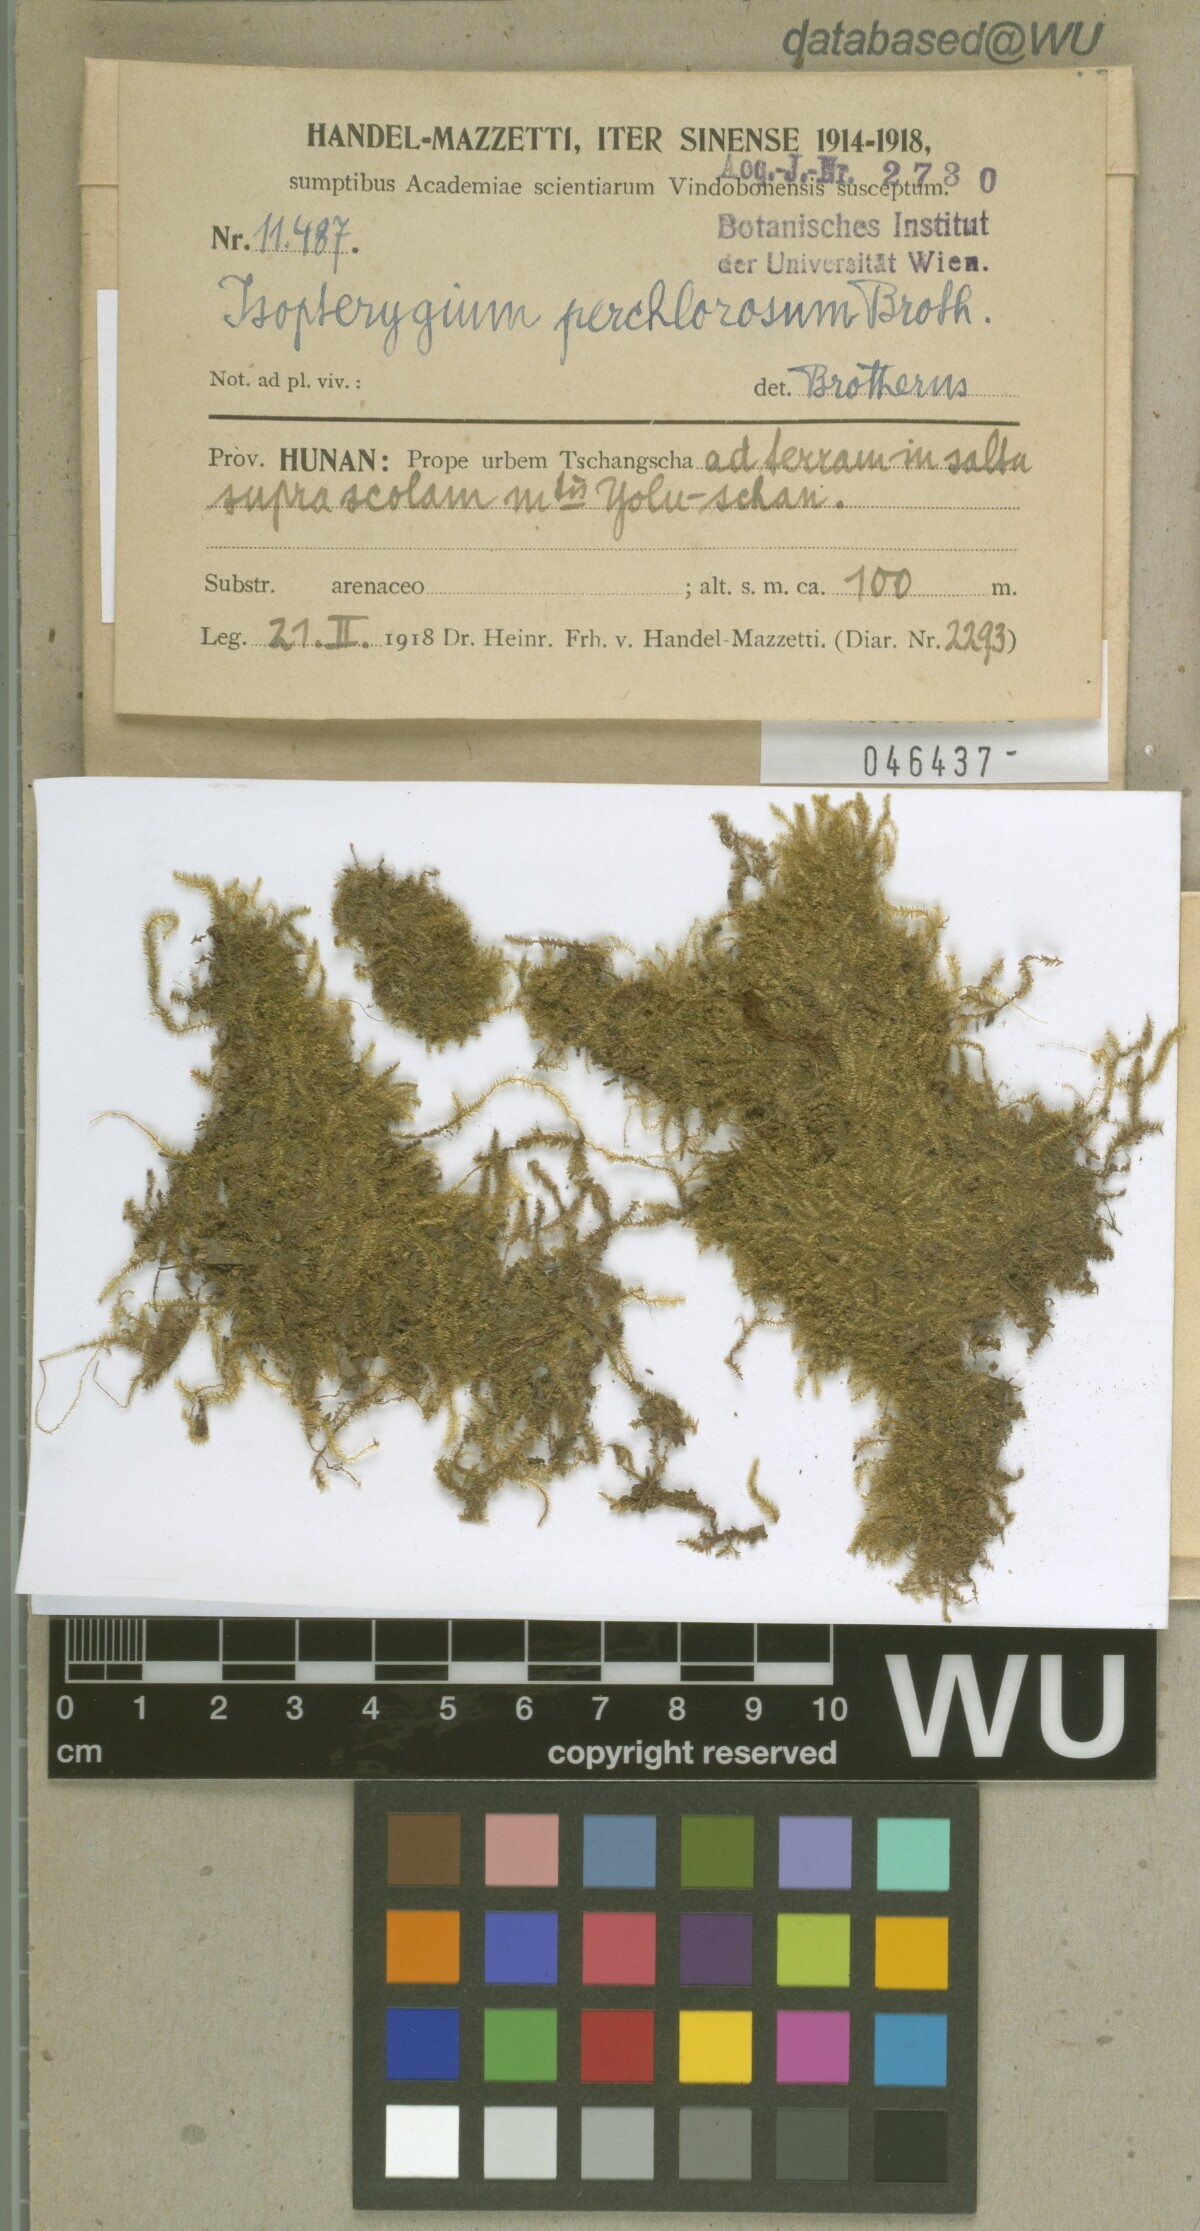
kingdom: Plantae
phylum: Bryophyta
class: Bryopsida
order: Hypnales
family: Plagiotheciaceae
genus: Pseudotaxiphyllum
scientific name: Pseudotaxiphyllum pohliicarpum
